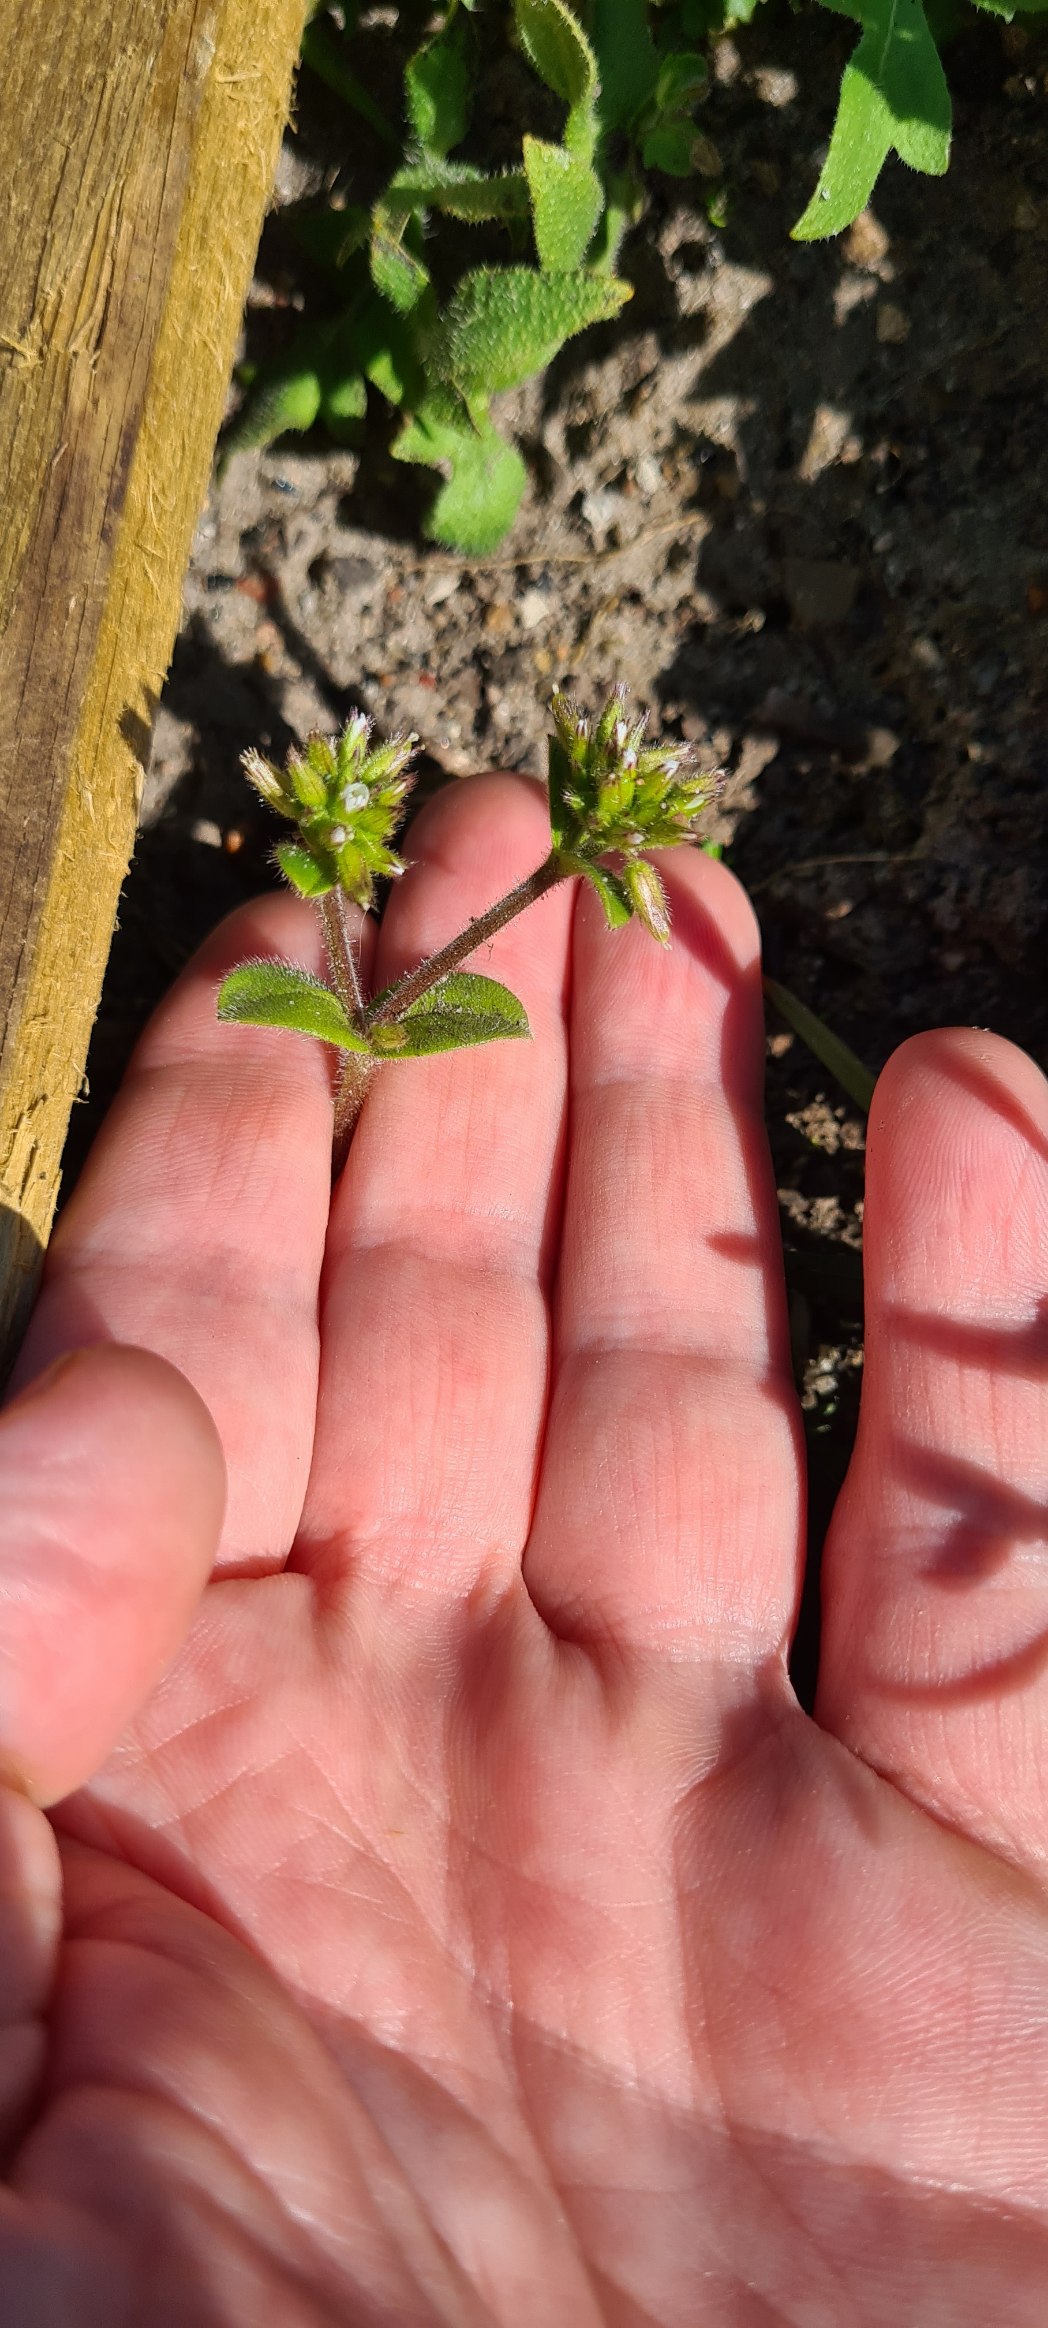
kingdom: Plantae
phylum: Tracheophyta
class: Magnoliopsida
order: Caryophyllales
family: Caryophyllaceae
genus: Cerastium
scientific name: Cerastium glomeratum
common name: Opret hønsetarm
